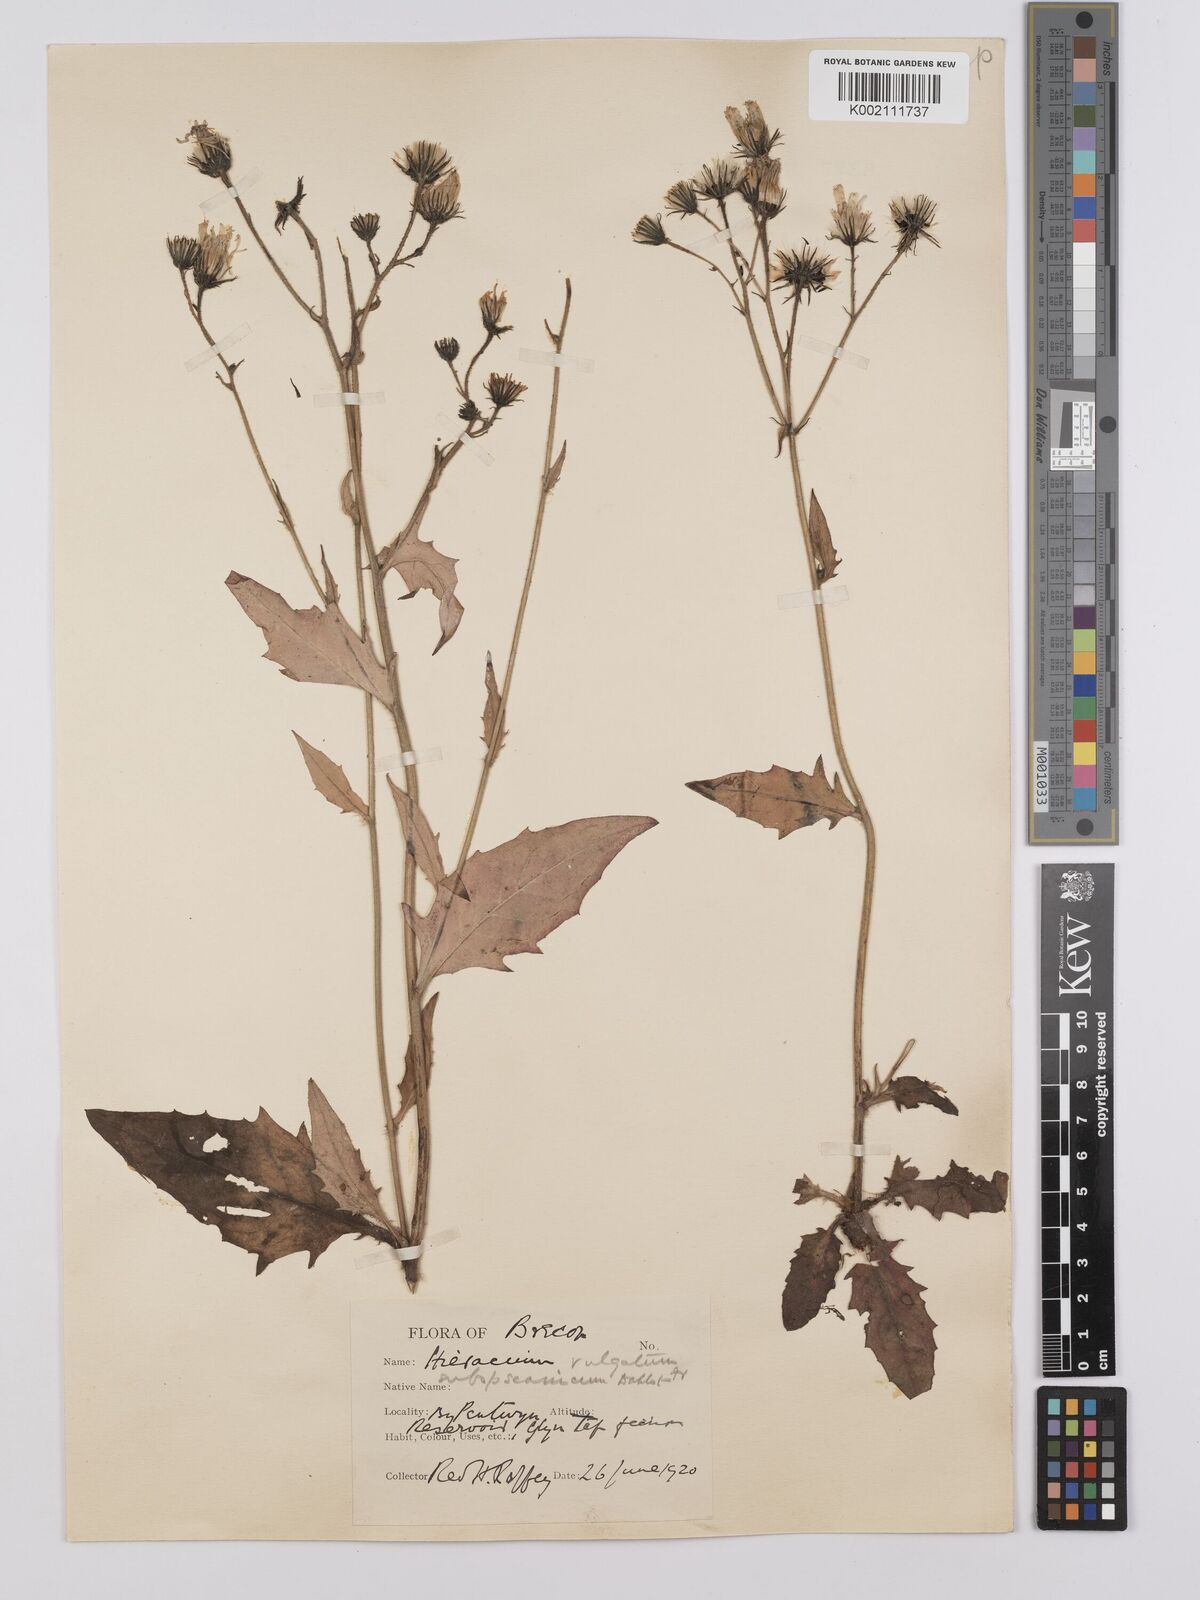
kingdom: Plantae
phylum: Tracheophyta
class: Magnoliopsida
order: Asterales
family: Asteraceae
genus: Hieracium
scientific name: Hieracium anglorum
